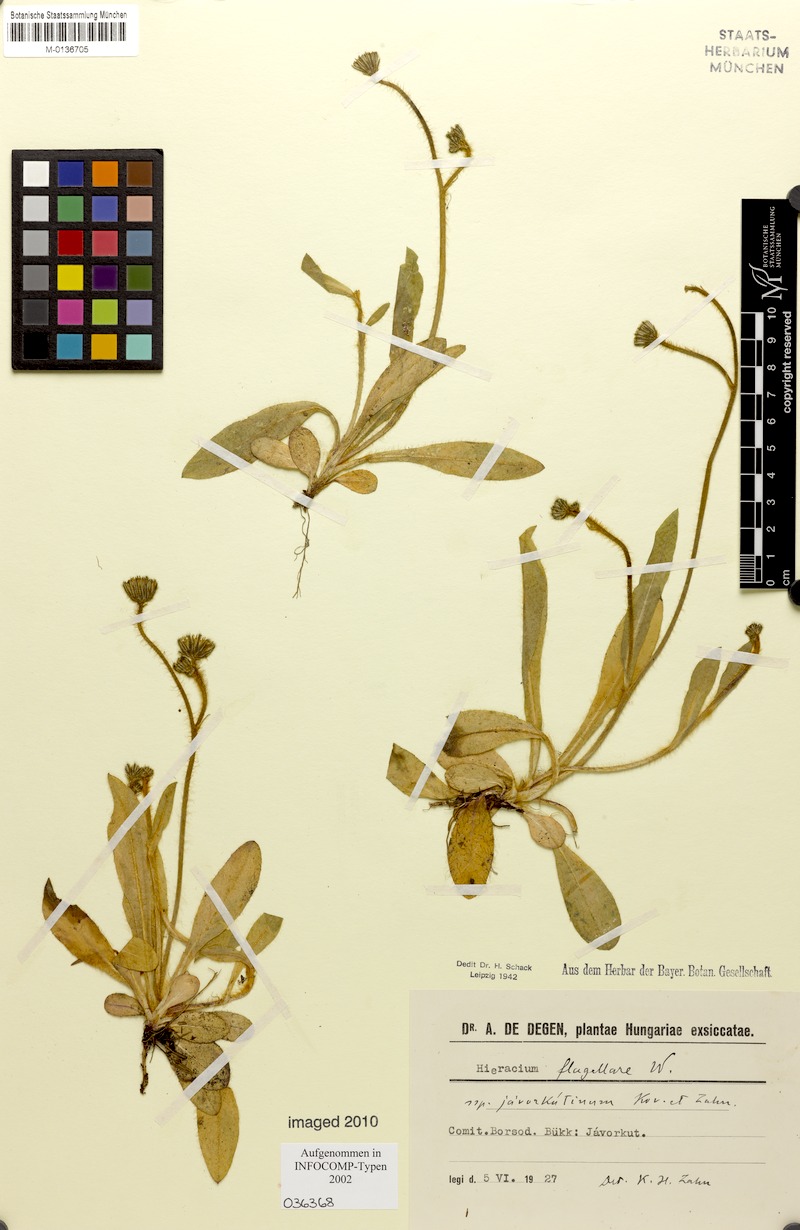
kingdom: Plantae
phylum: Tracheophyta
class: Magnoliopsida
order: Asterales
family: Asteraceae
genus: Pilosella
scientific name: Pilosella
